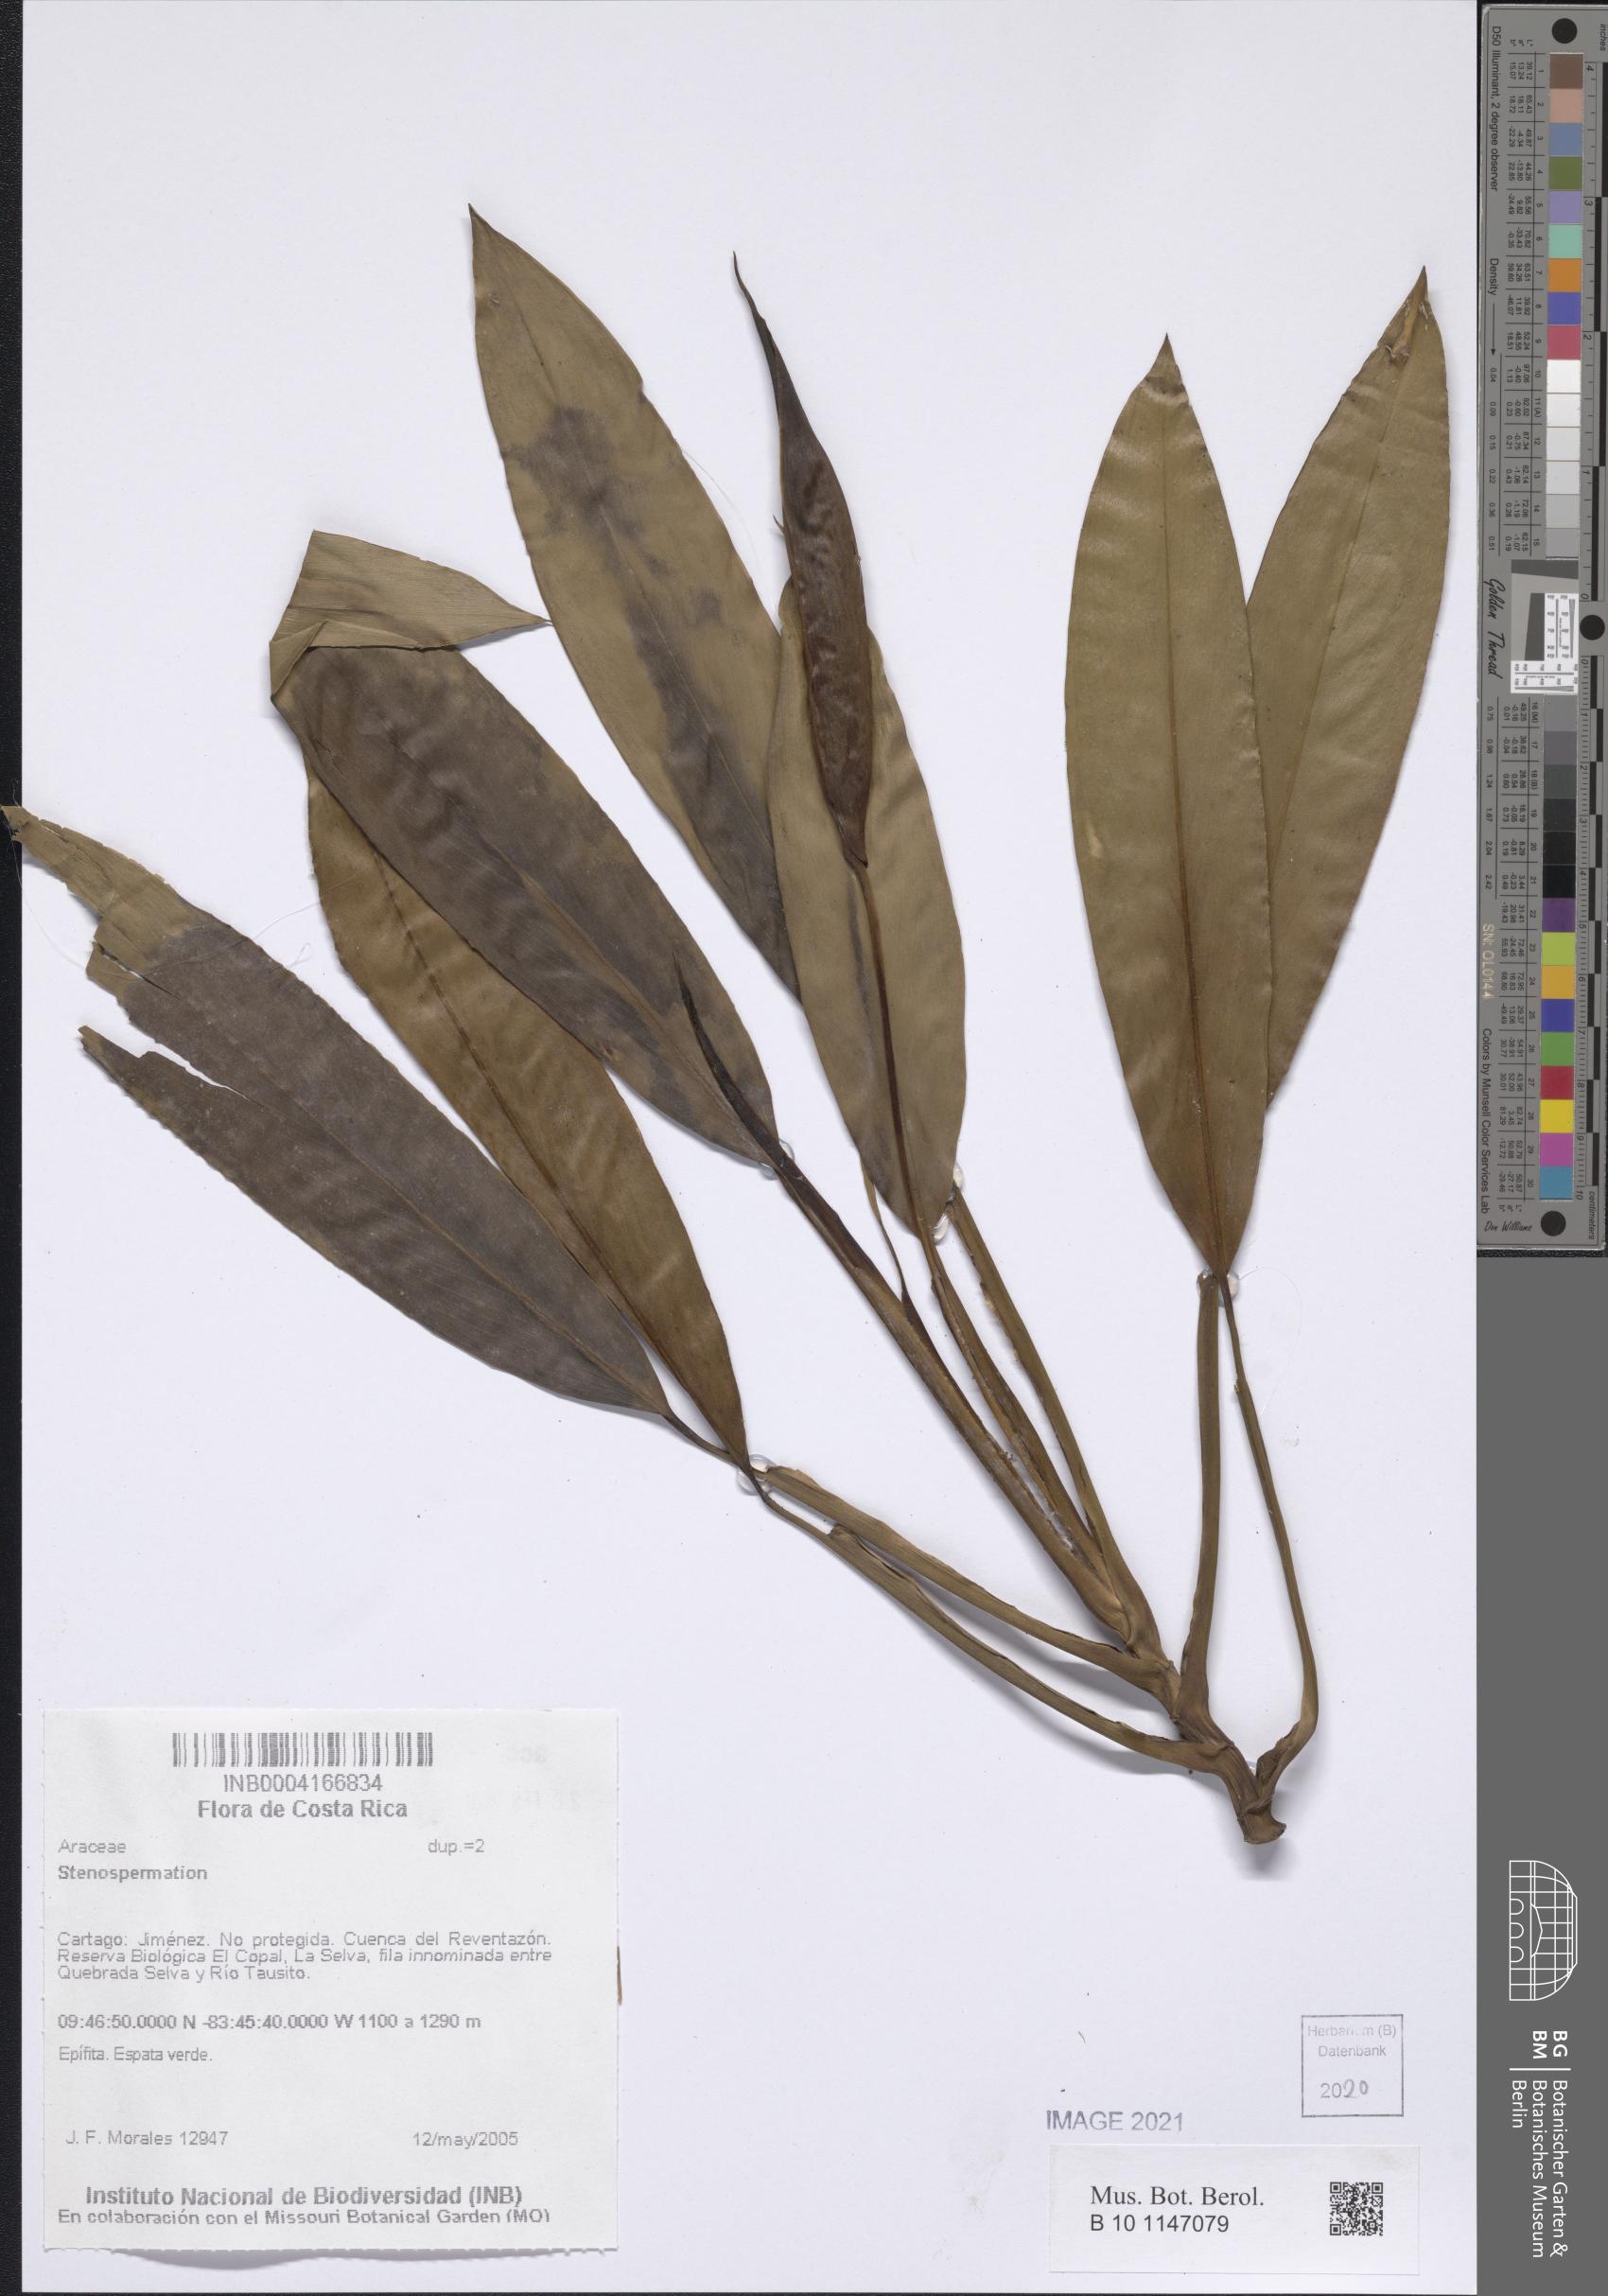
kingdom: Plantae
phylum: Tracheophyta
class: Liliopsida
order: Alismatales
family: Araceae
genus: Stenospermation
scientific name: Stenospermation
